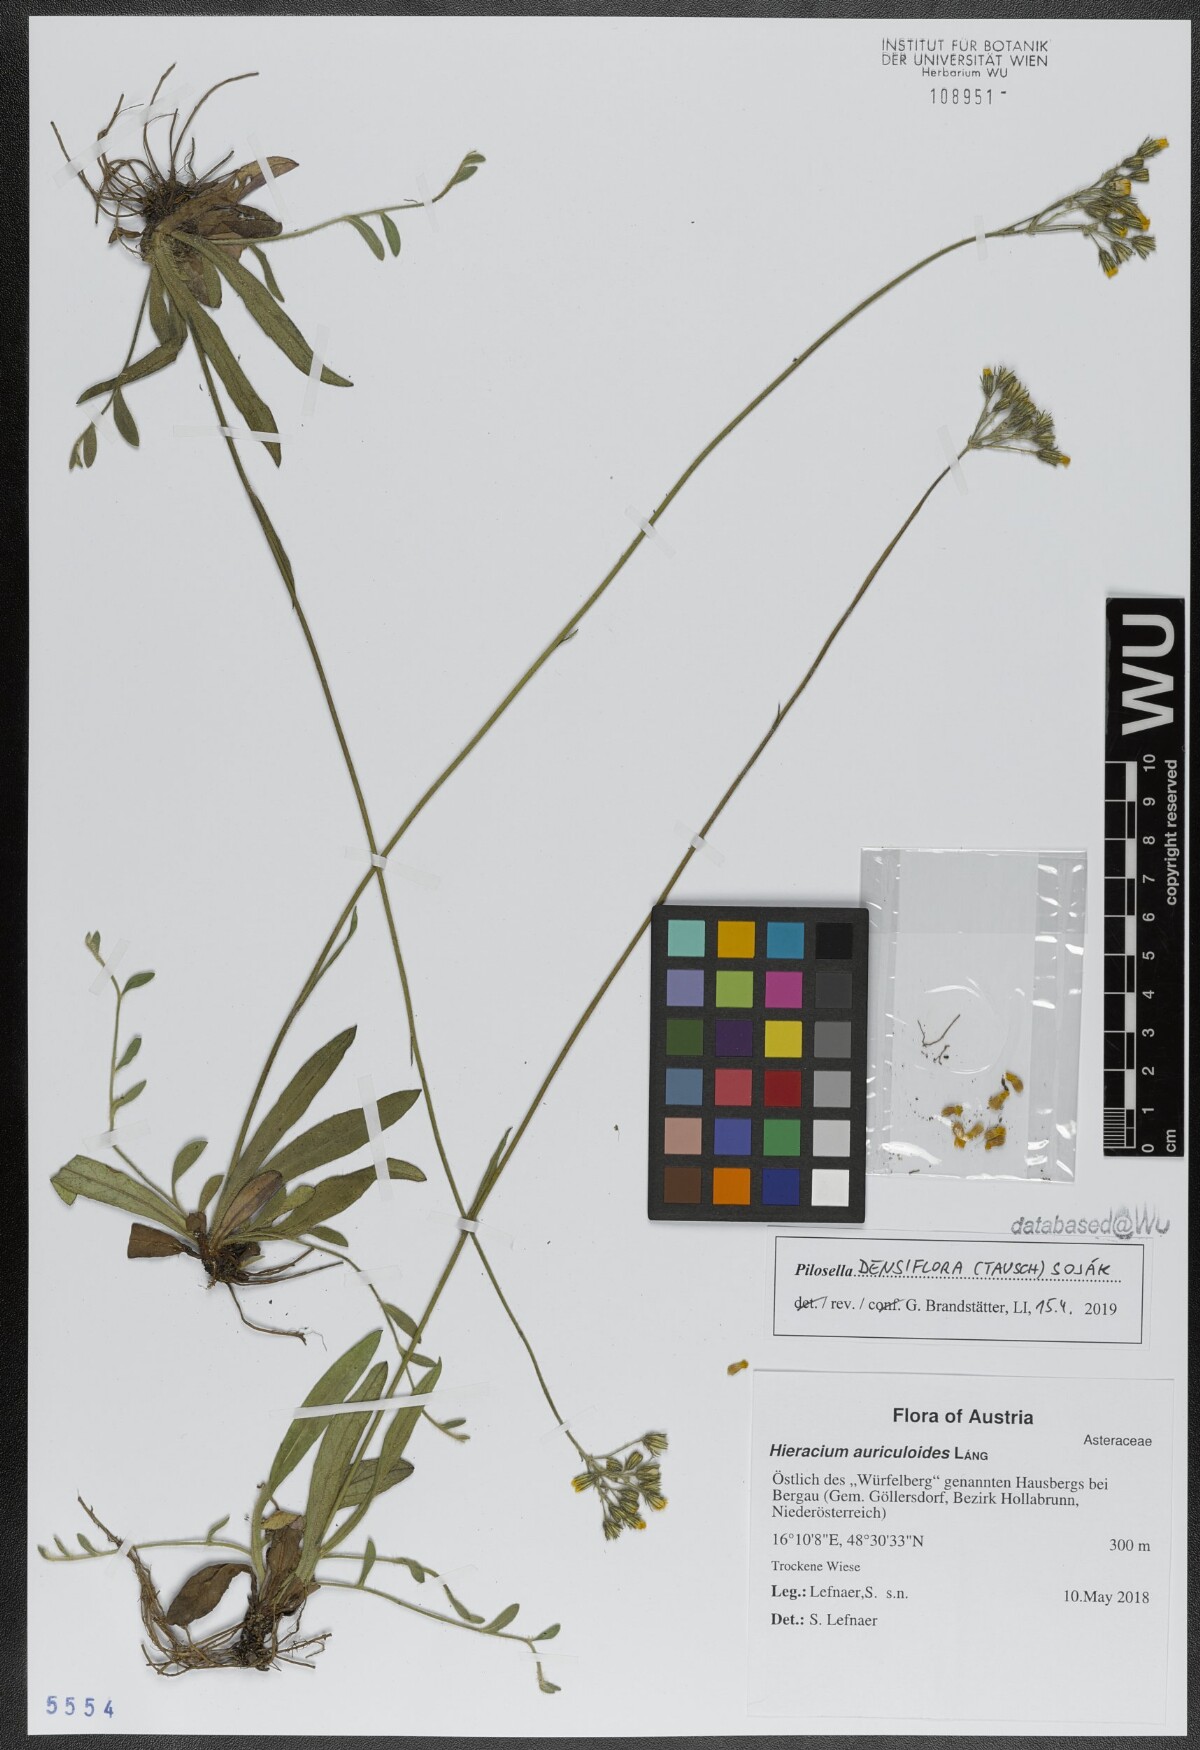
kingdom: Plantae
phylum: Tracheophyta
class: Magnoliopsida
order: Asterales
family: Asteraceae
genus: Pilosella
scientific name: Pilosella densiflora
